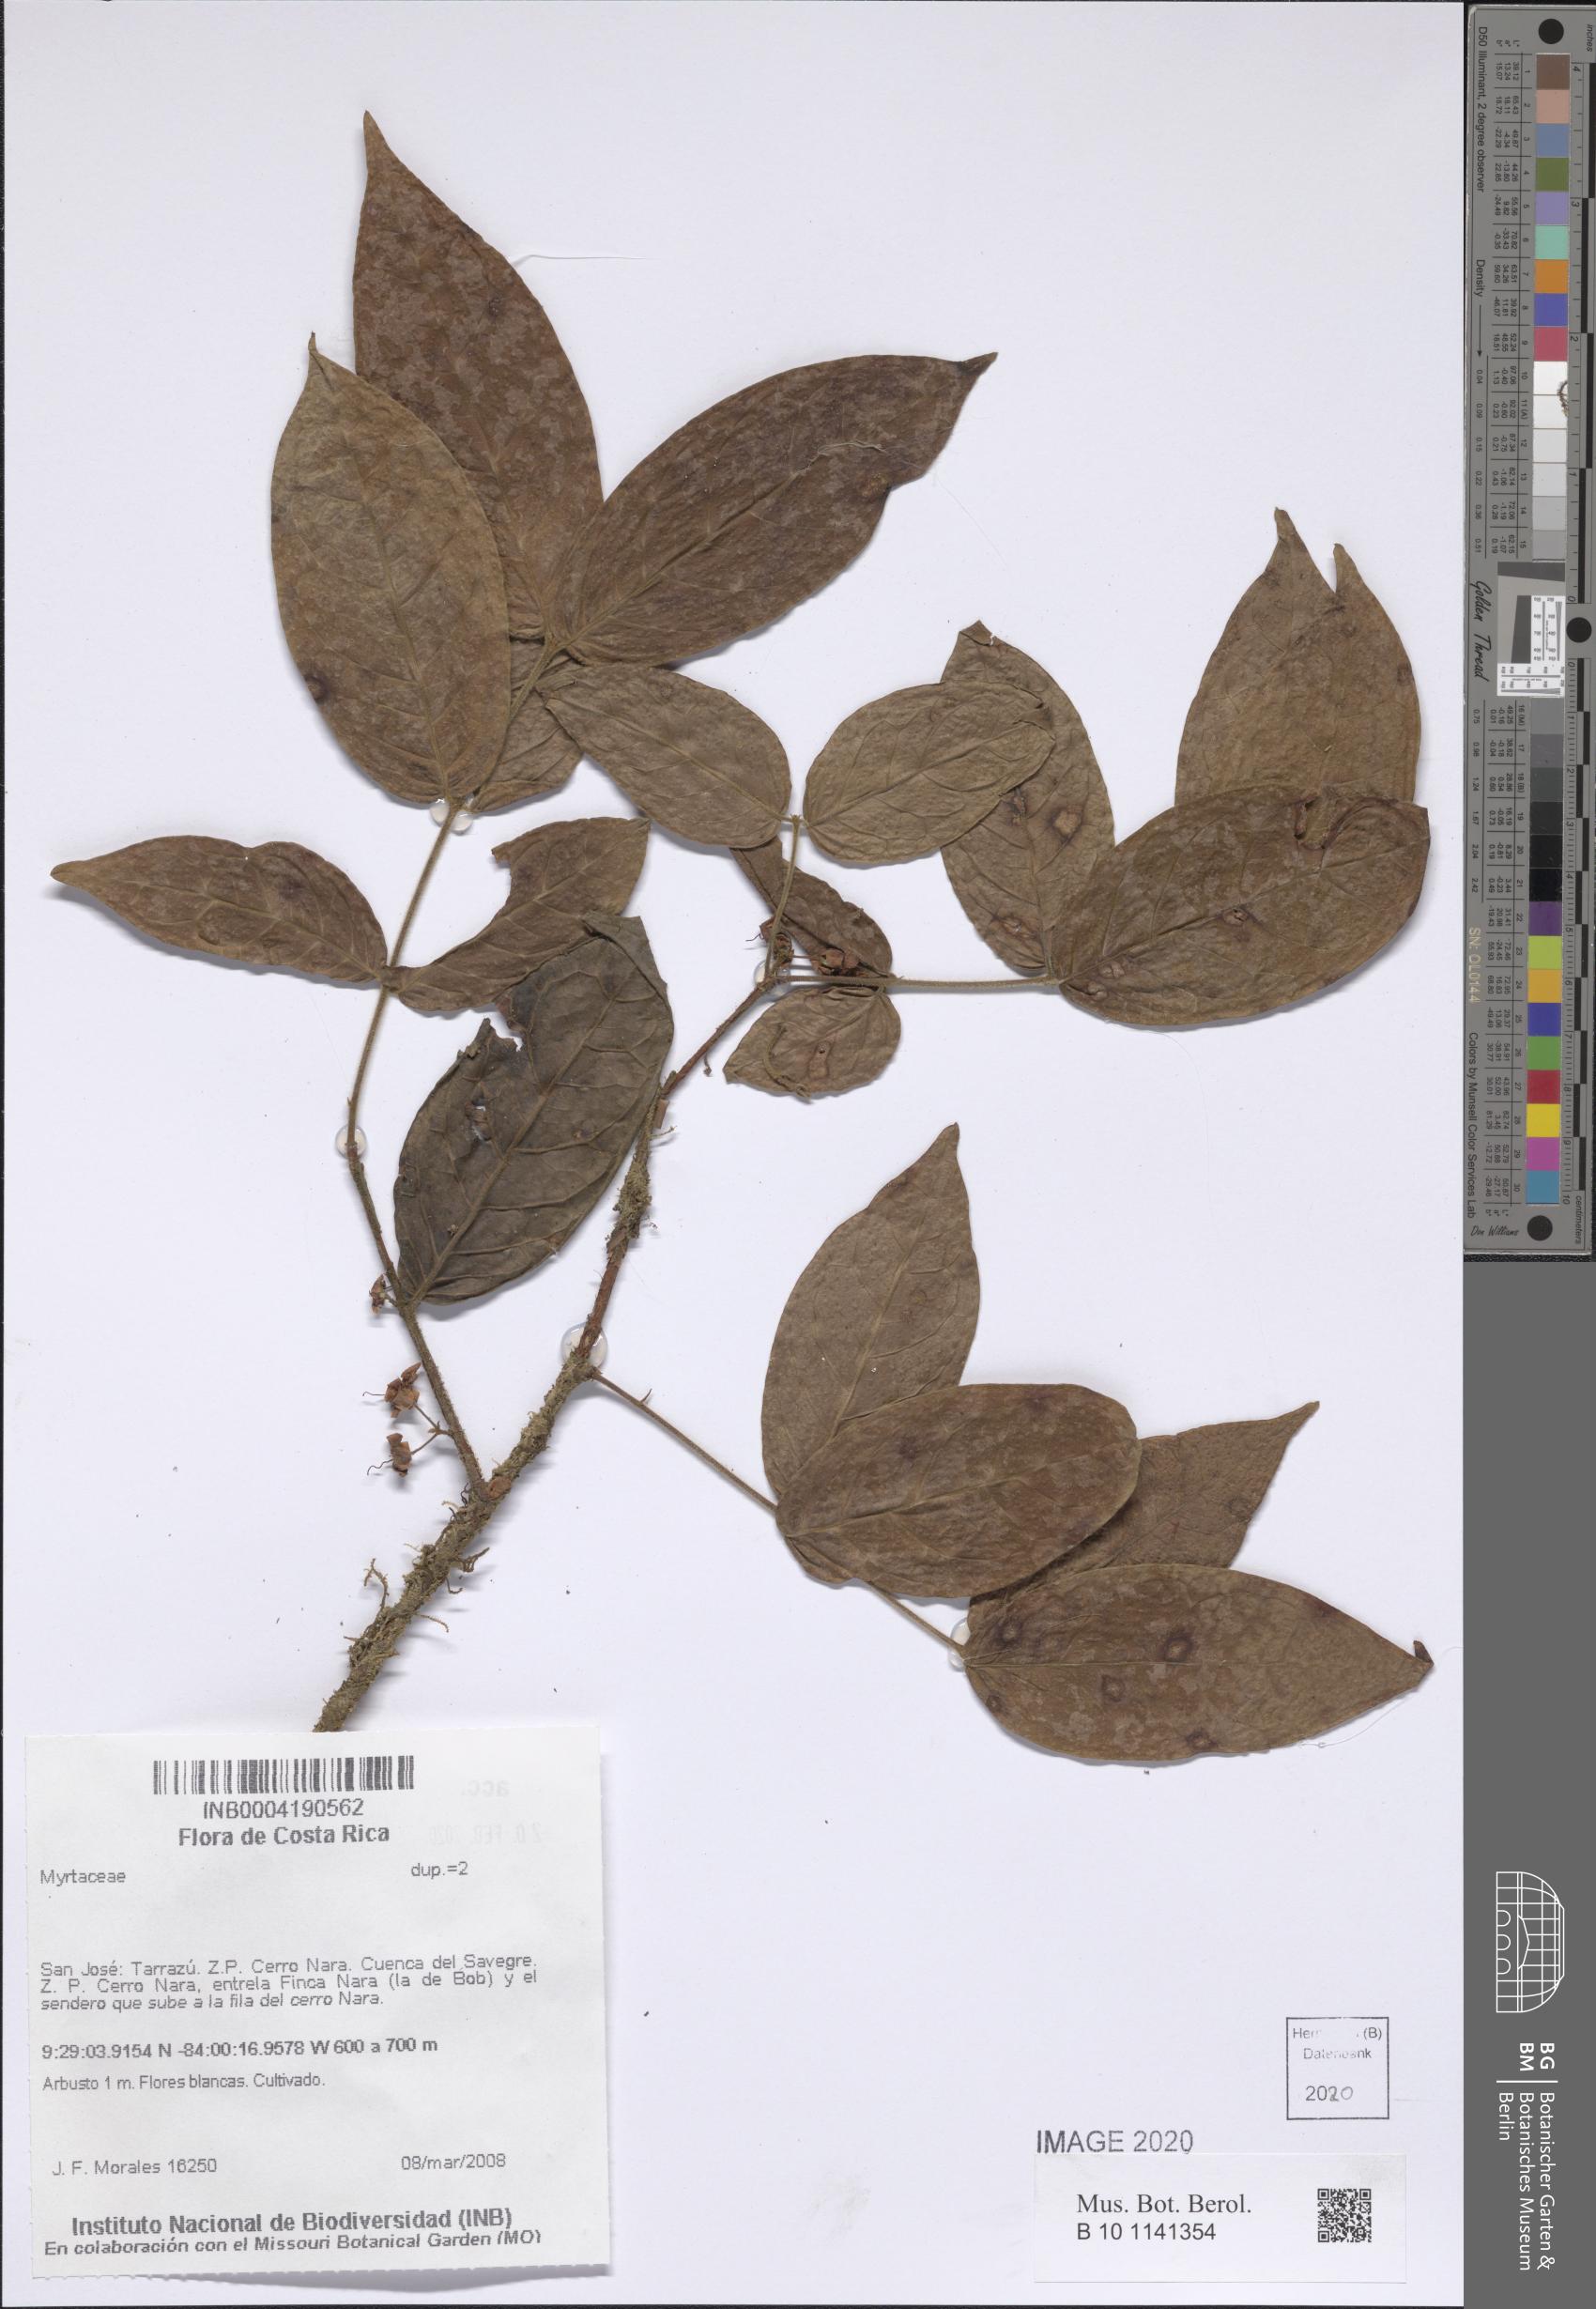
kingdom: Plantae
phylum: Tracheophyta
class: Magnoliopsida
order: Myrtales
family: Myrtaceae
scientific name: Myrtaceae
